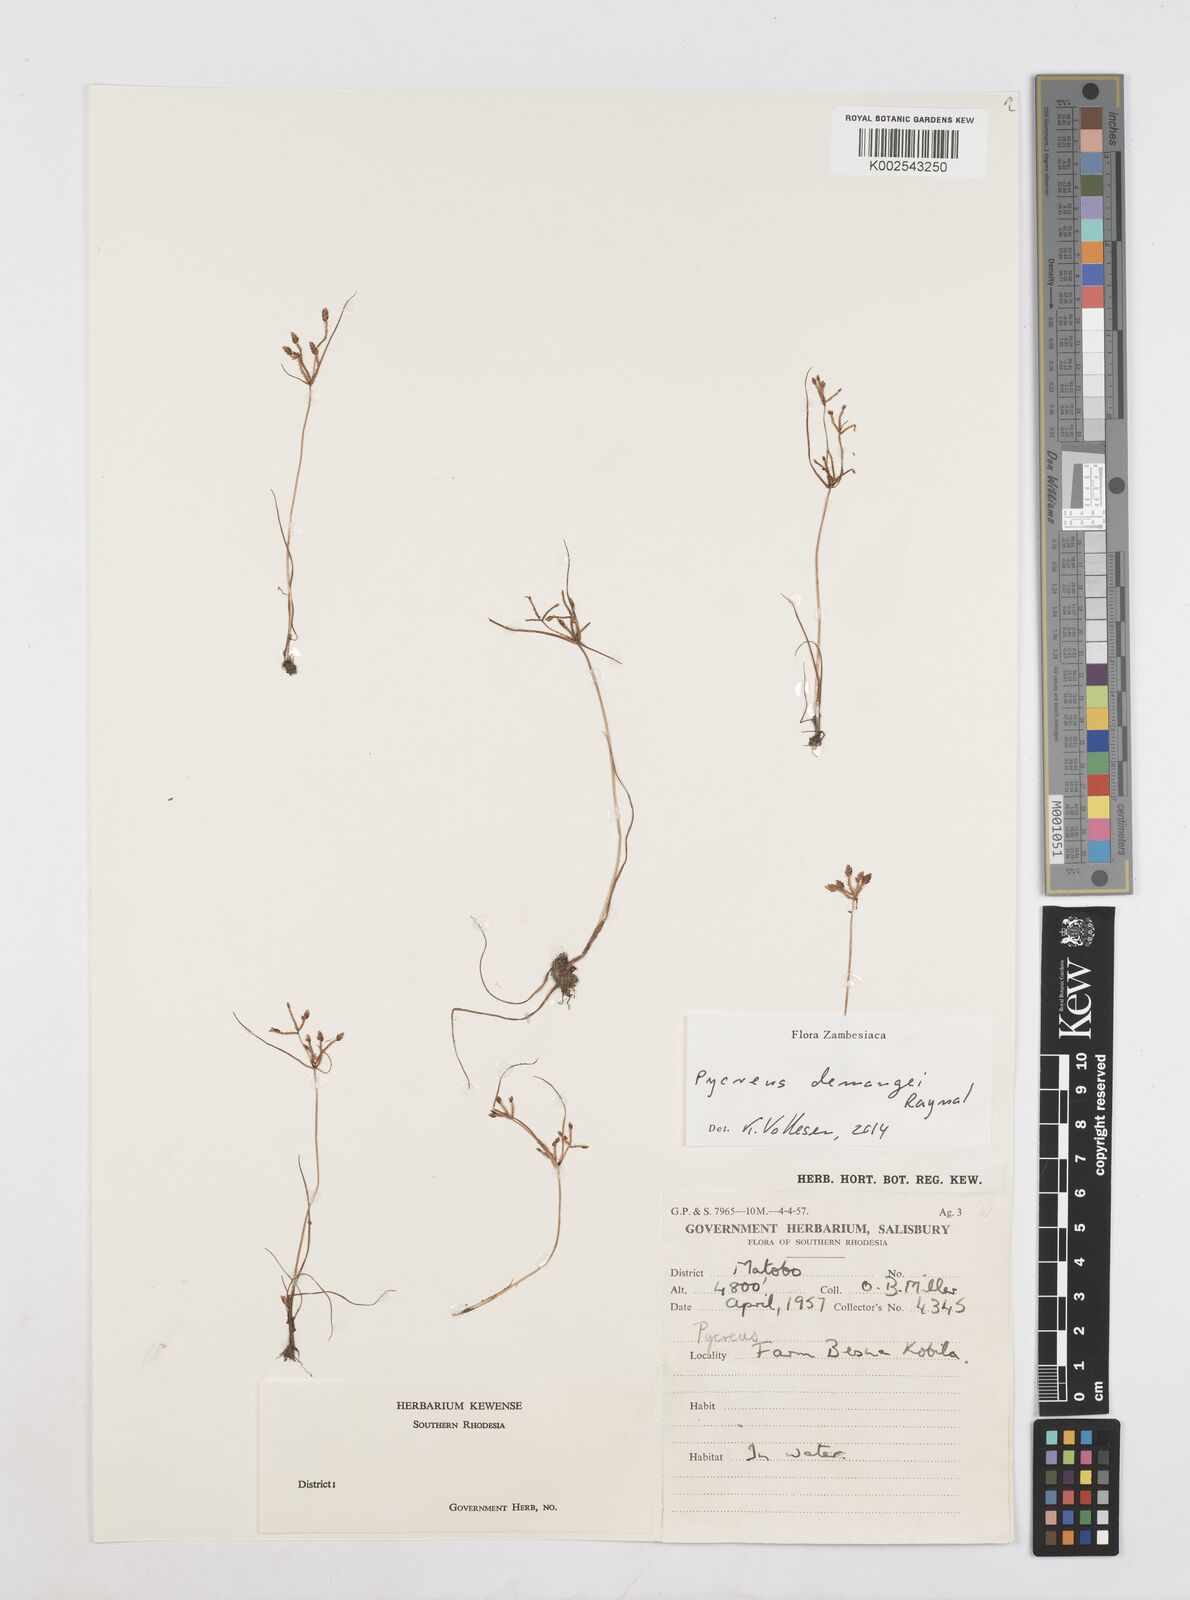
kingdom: Plantae
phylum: Tracheophyta
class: Liliopsida
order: Poales
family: Cyperaceae
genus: Cyperus
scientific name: Cyperus demangei
